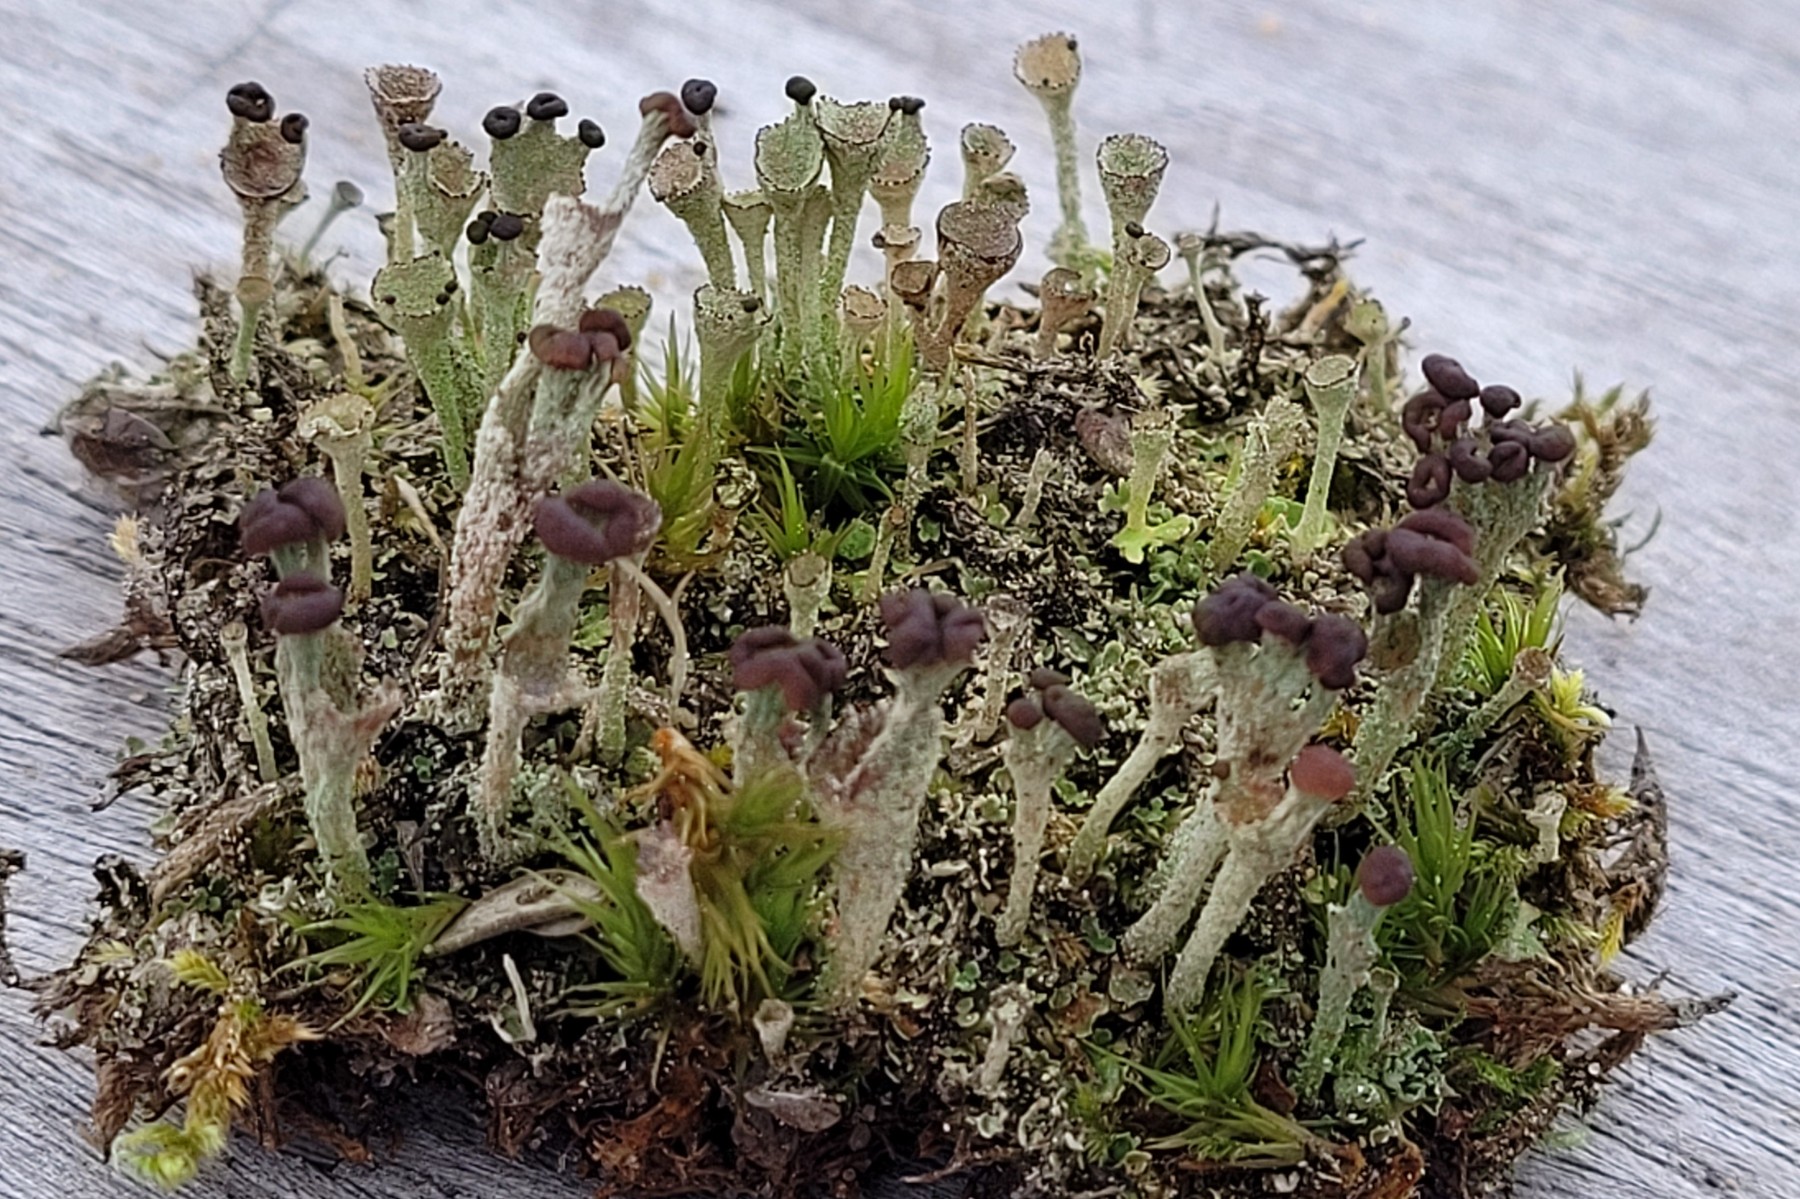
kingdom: Fungi
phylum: Ascomycota
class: Lecanoromycetes
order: Lecanorales
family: Cladoniaceae
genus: Cladonia
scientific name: Cladonia chlorophaea
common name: Mealy pixie cup
